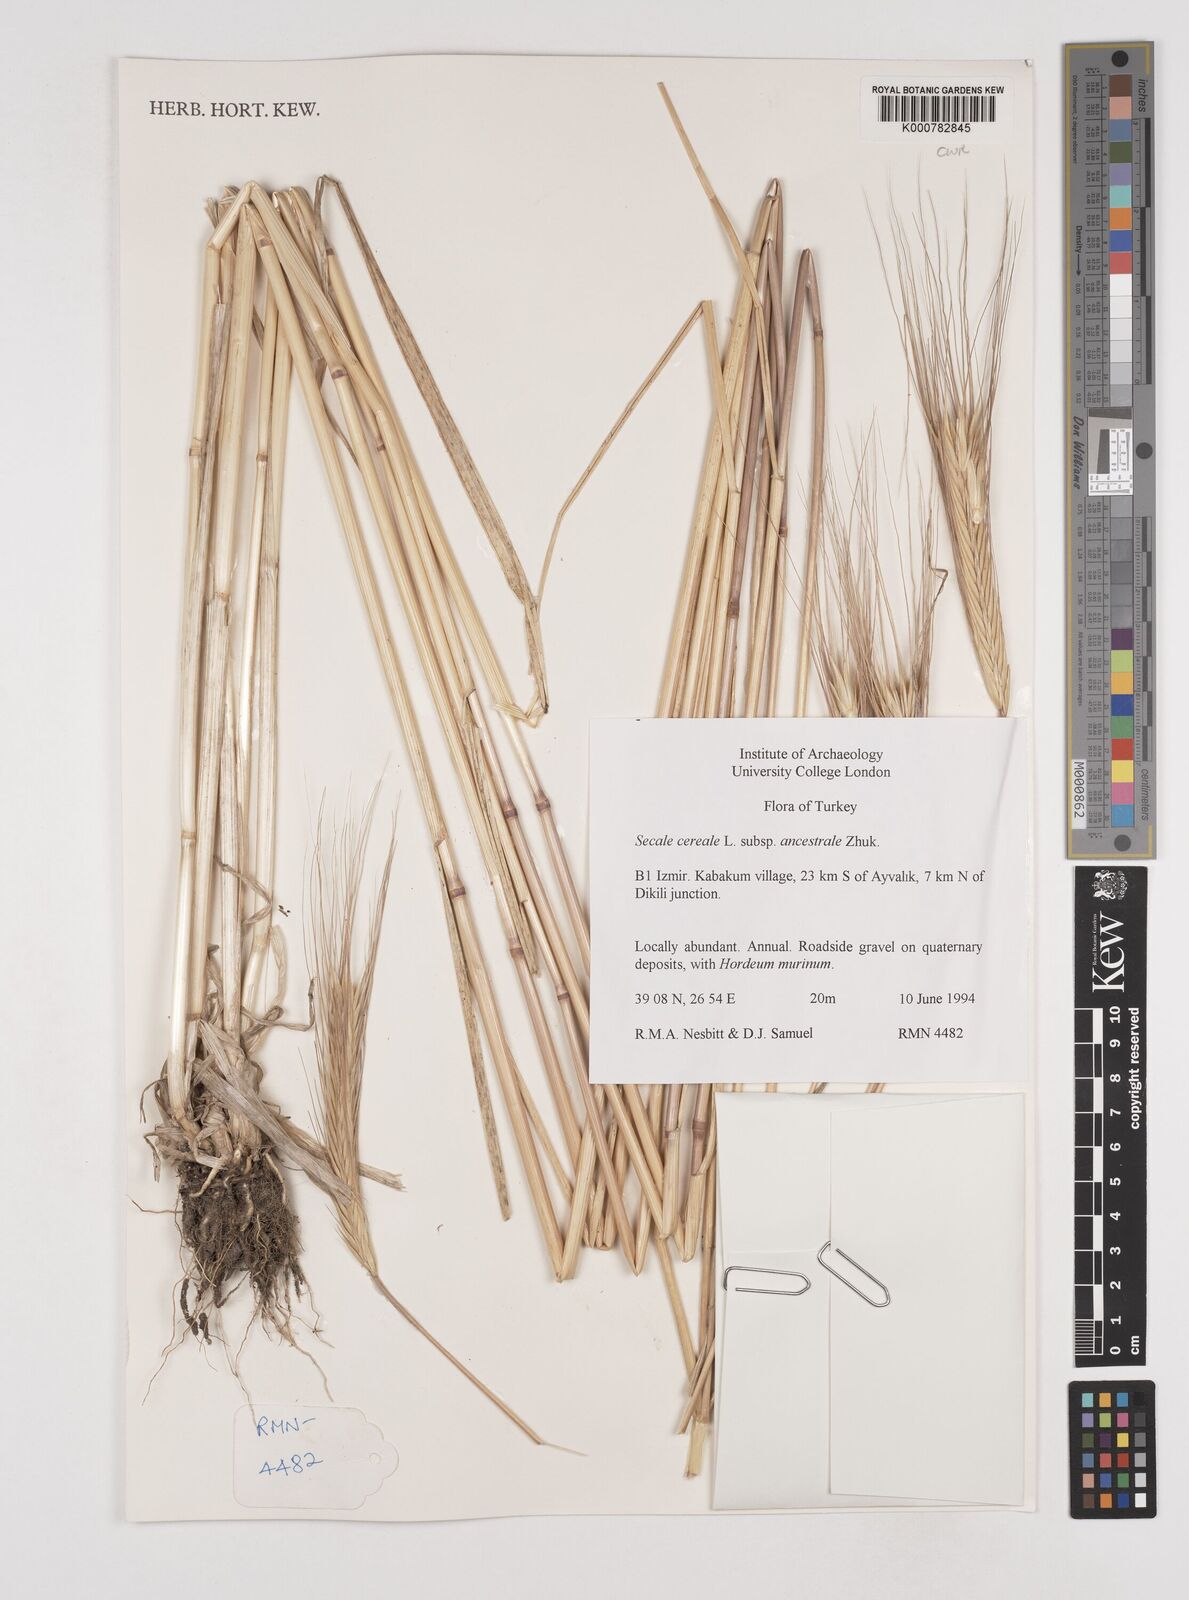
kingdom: Plantae
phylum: Tracheophyta
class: Liliopsida
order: Poales
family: Poaceae
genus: Secale
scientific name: Secale cereale
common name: Rye
